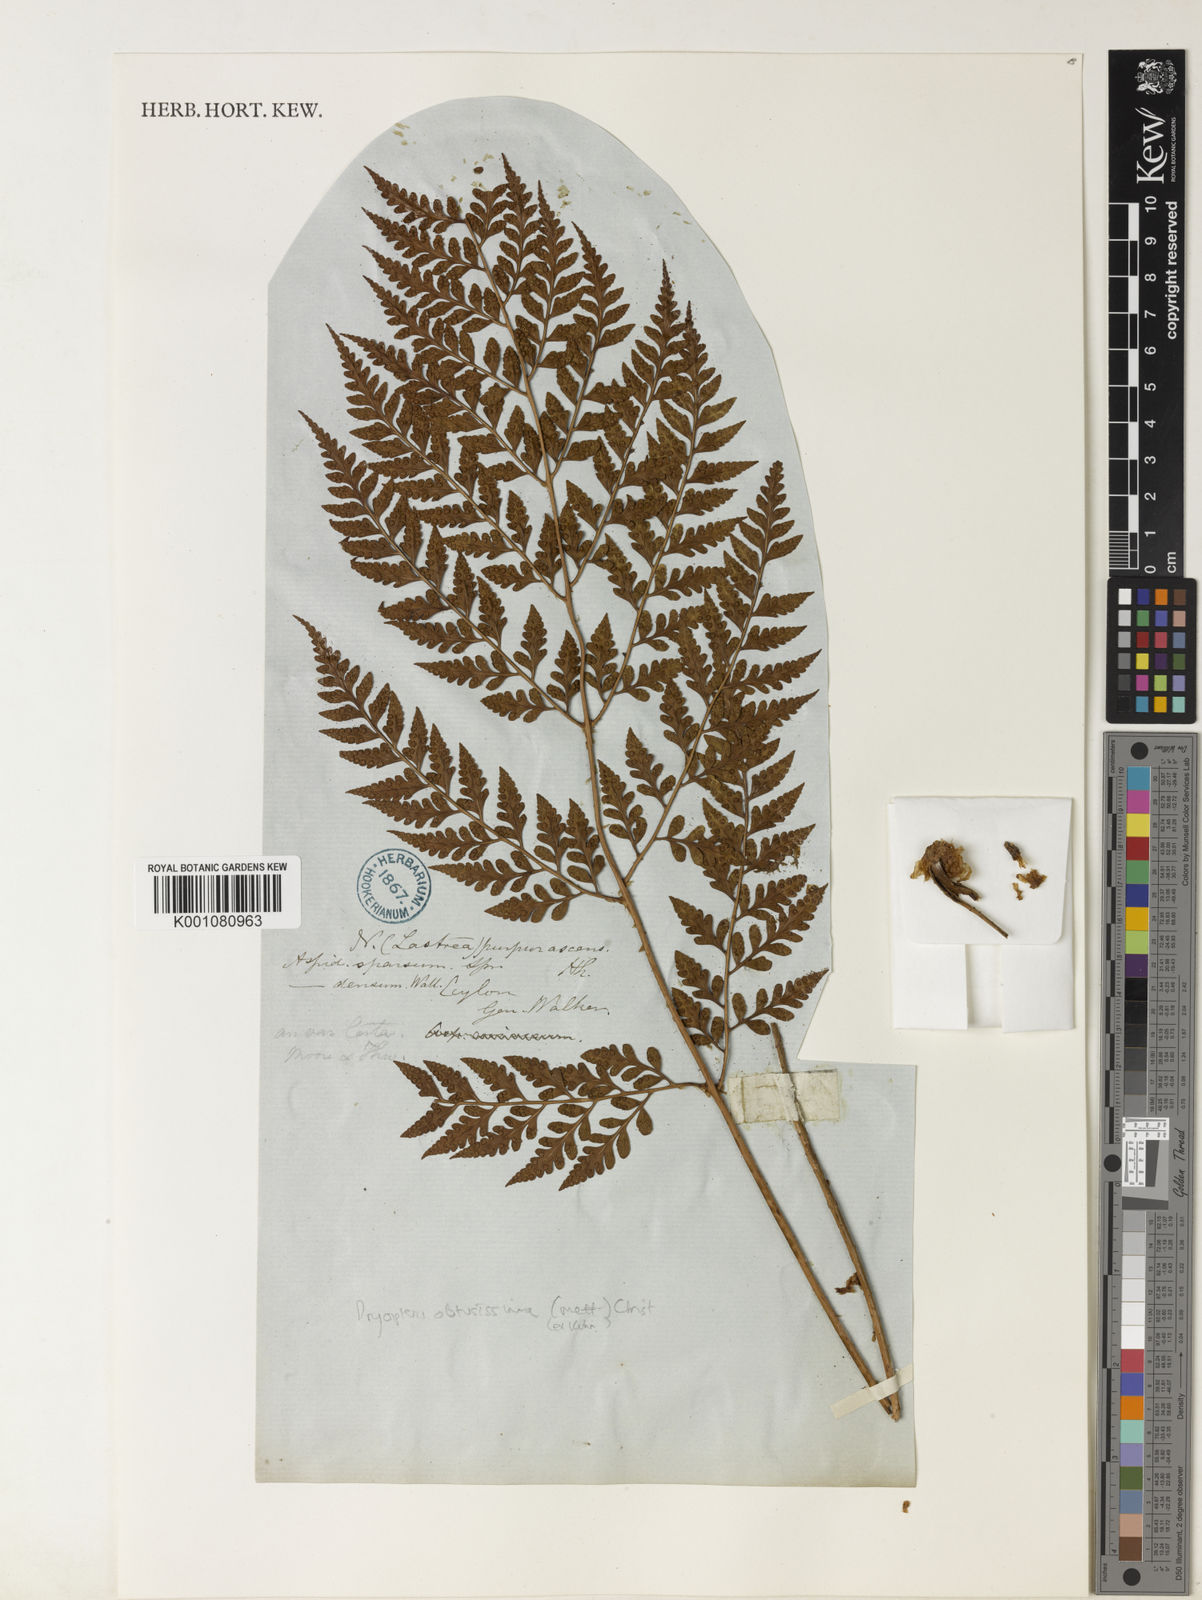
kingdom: Plantae
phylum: Tracheophyta
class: Polypodiopsida
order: Polypodiales
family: Dryopteridaceae
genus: Dryopteris
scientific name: Dryopteris
